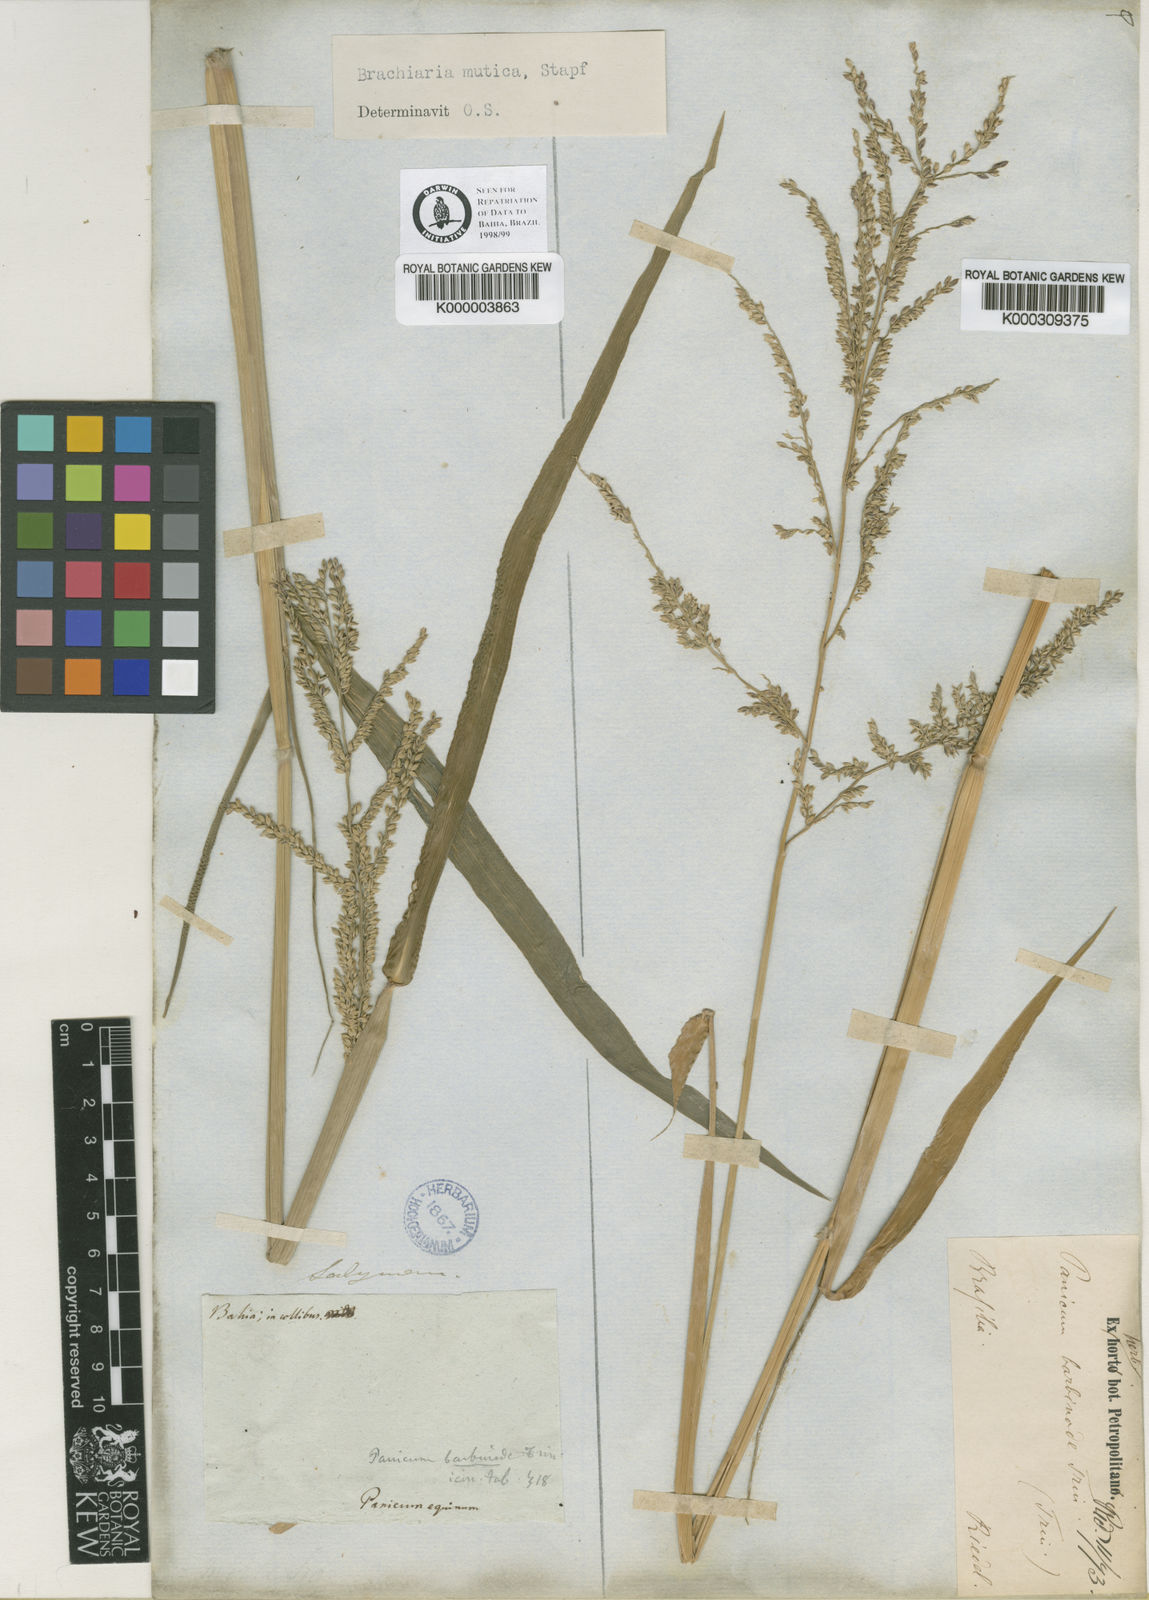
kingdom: Plantae
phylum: Tracheophyta
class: Liliopsida
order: Poales
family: Poaceae
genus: Urochloa
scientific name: Urochloa mutica
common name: Para grass
